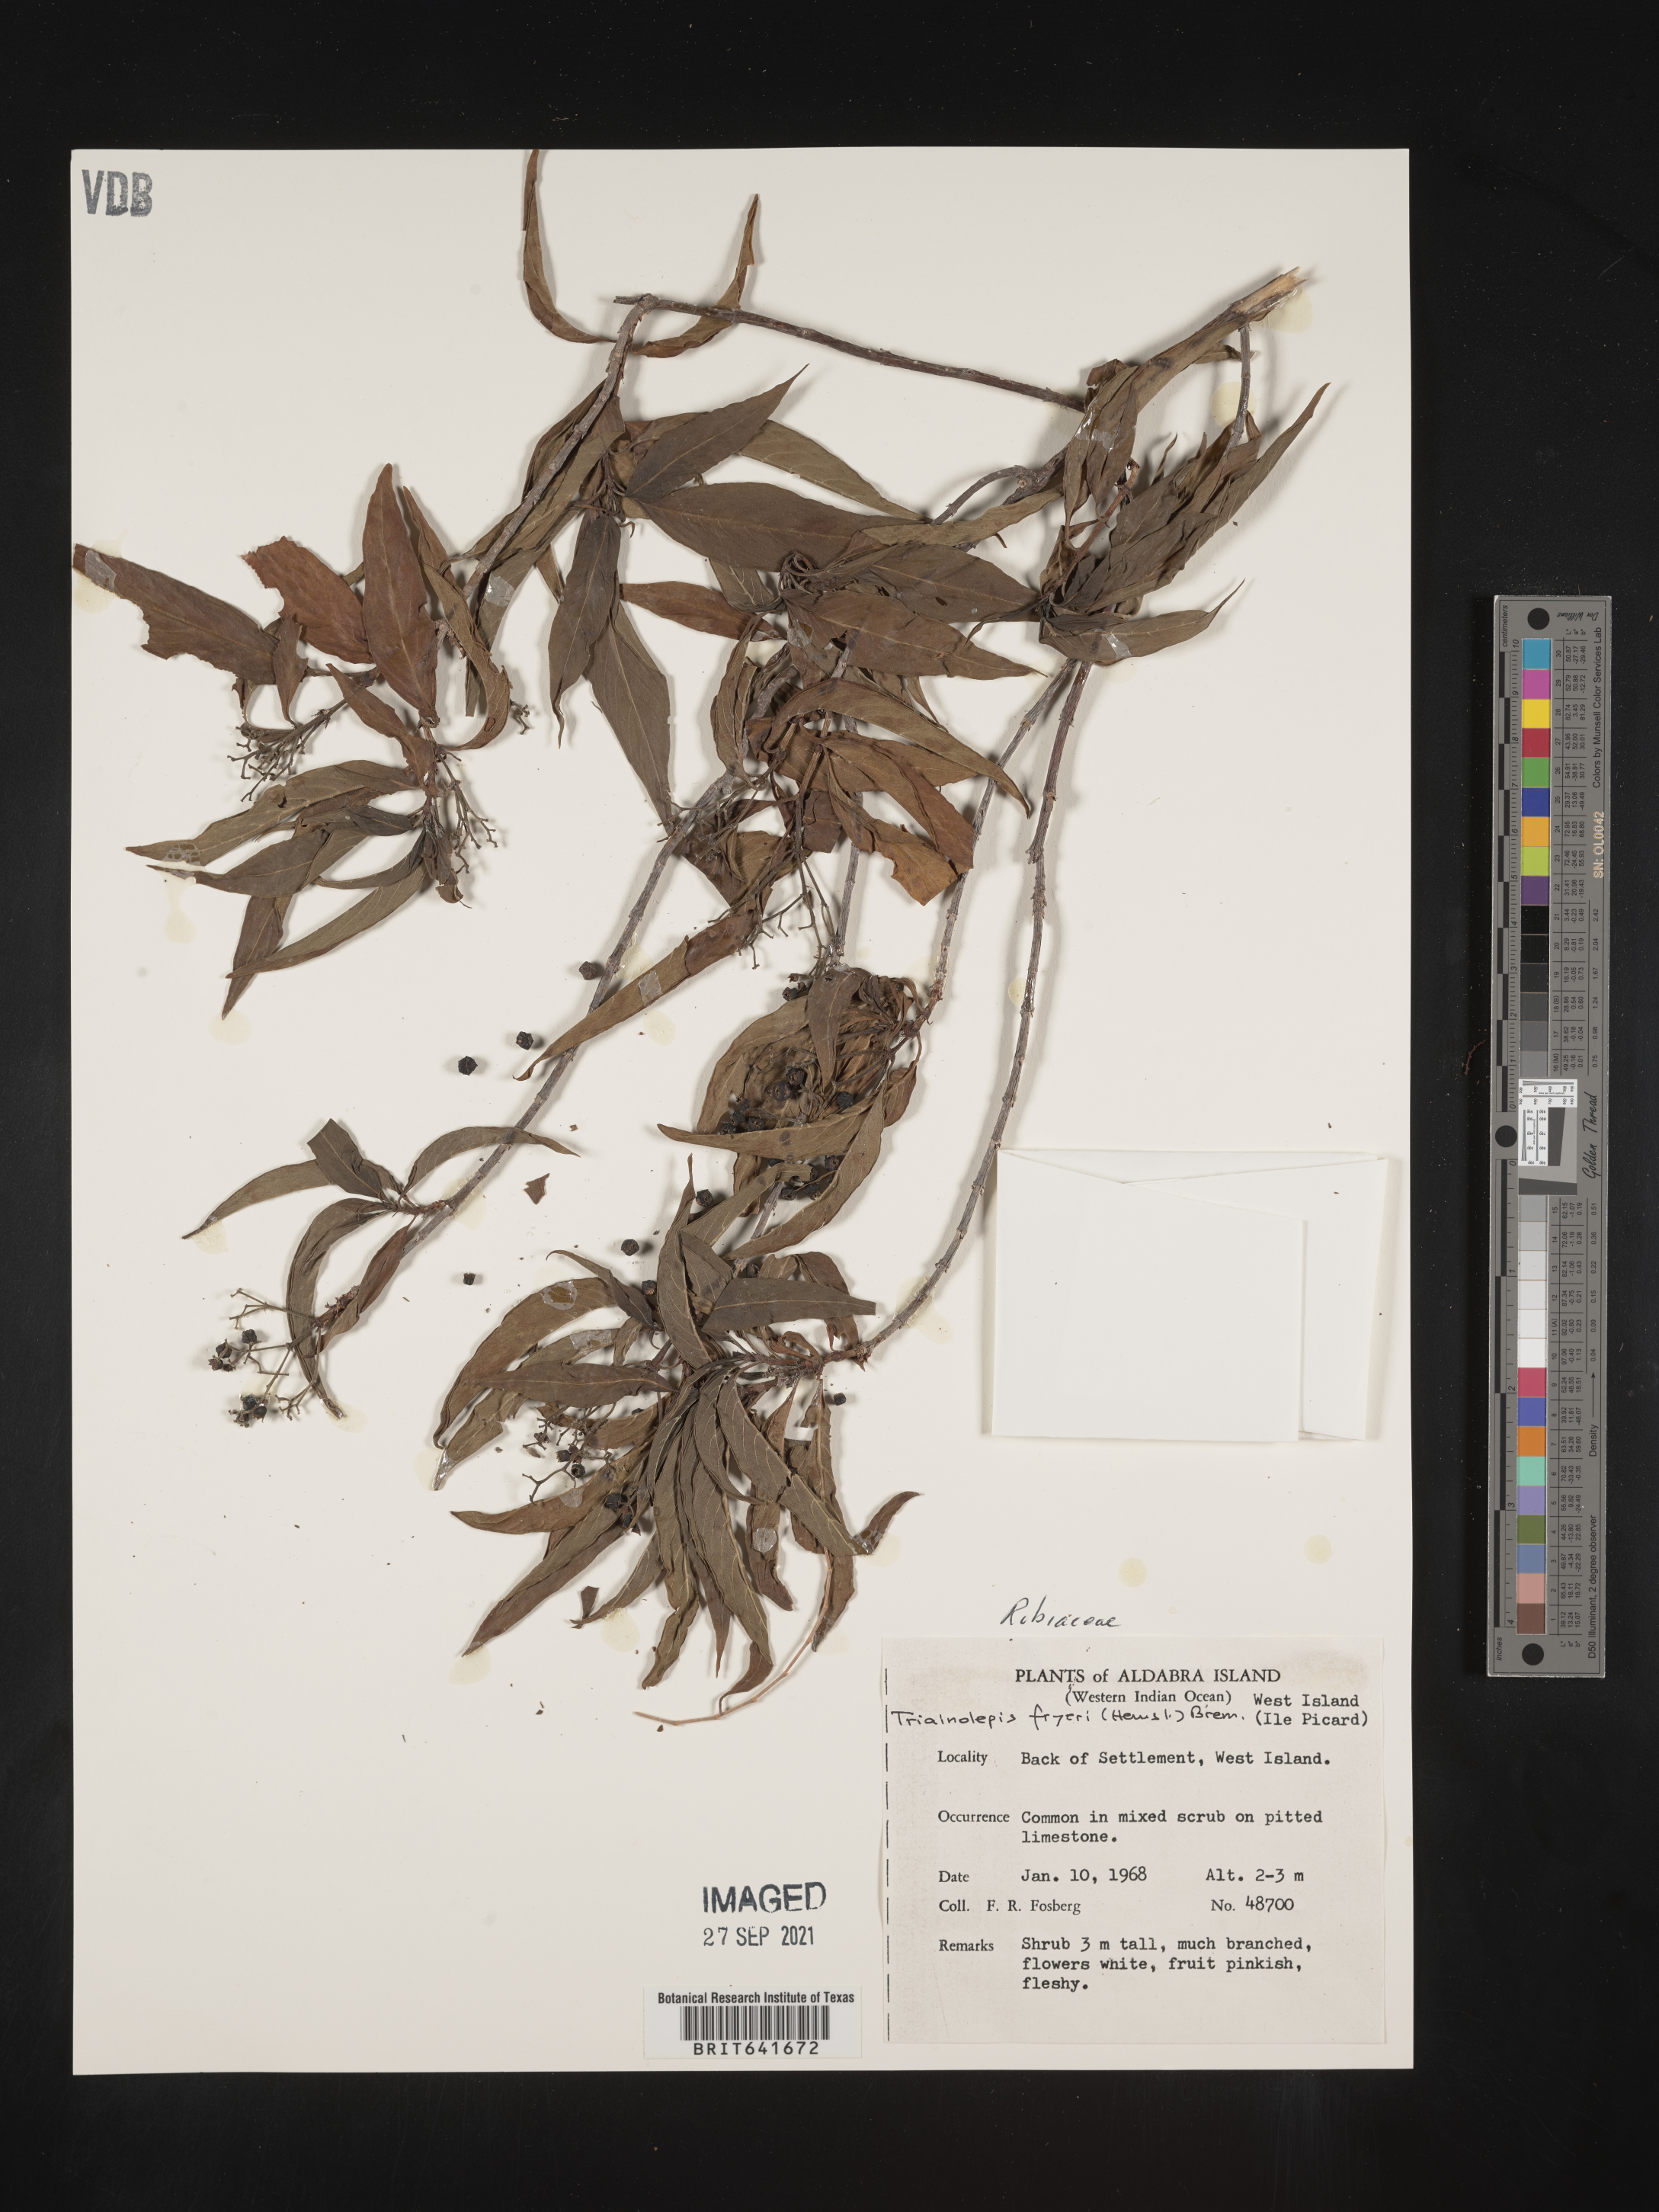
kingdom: Plantae
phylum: Tracheophyta
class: Magnoliopsida
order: Gentianales
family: Rubiaceae
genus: Triainolepis
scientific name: Triainolepis africana
